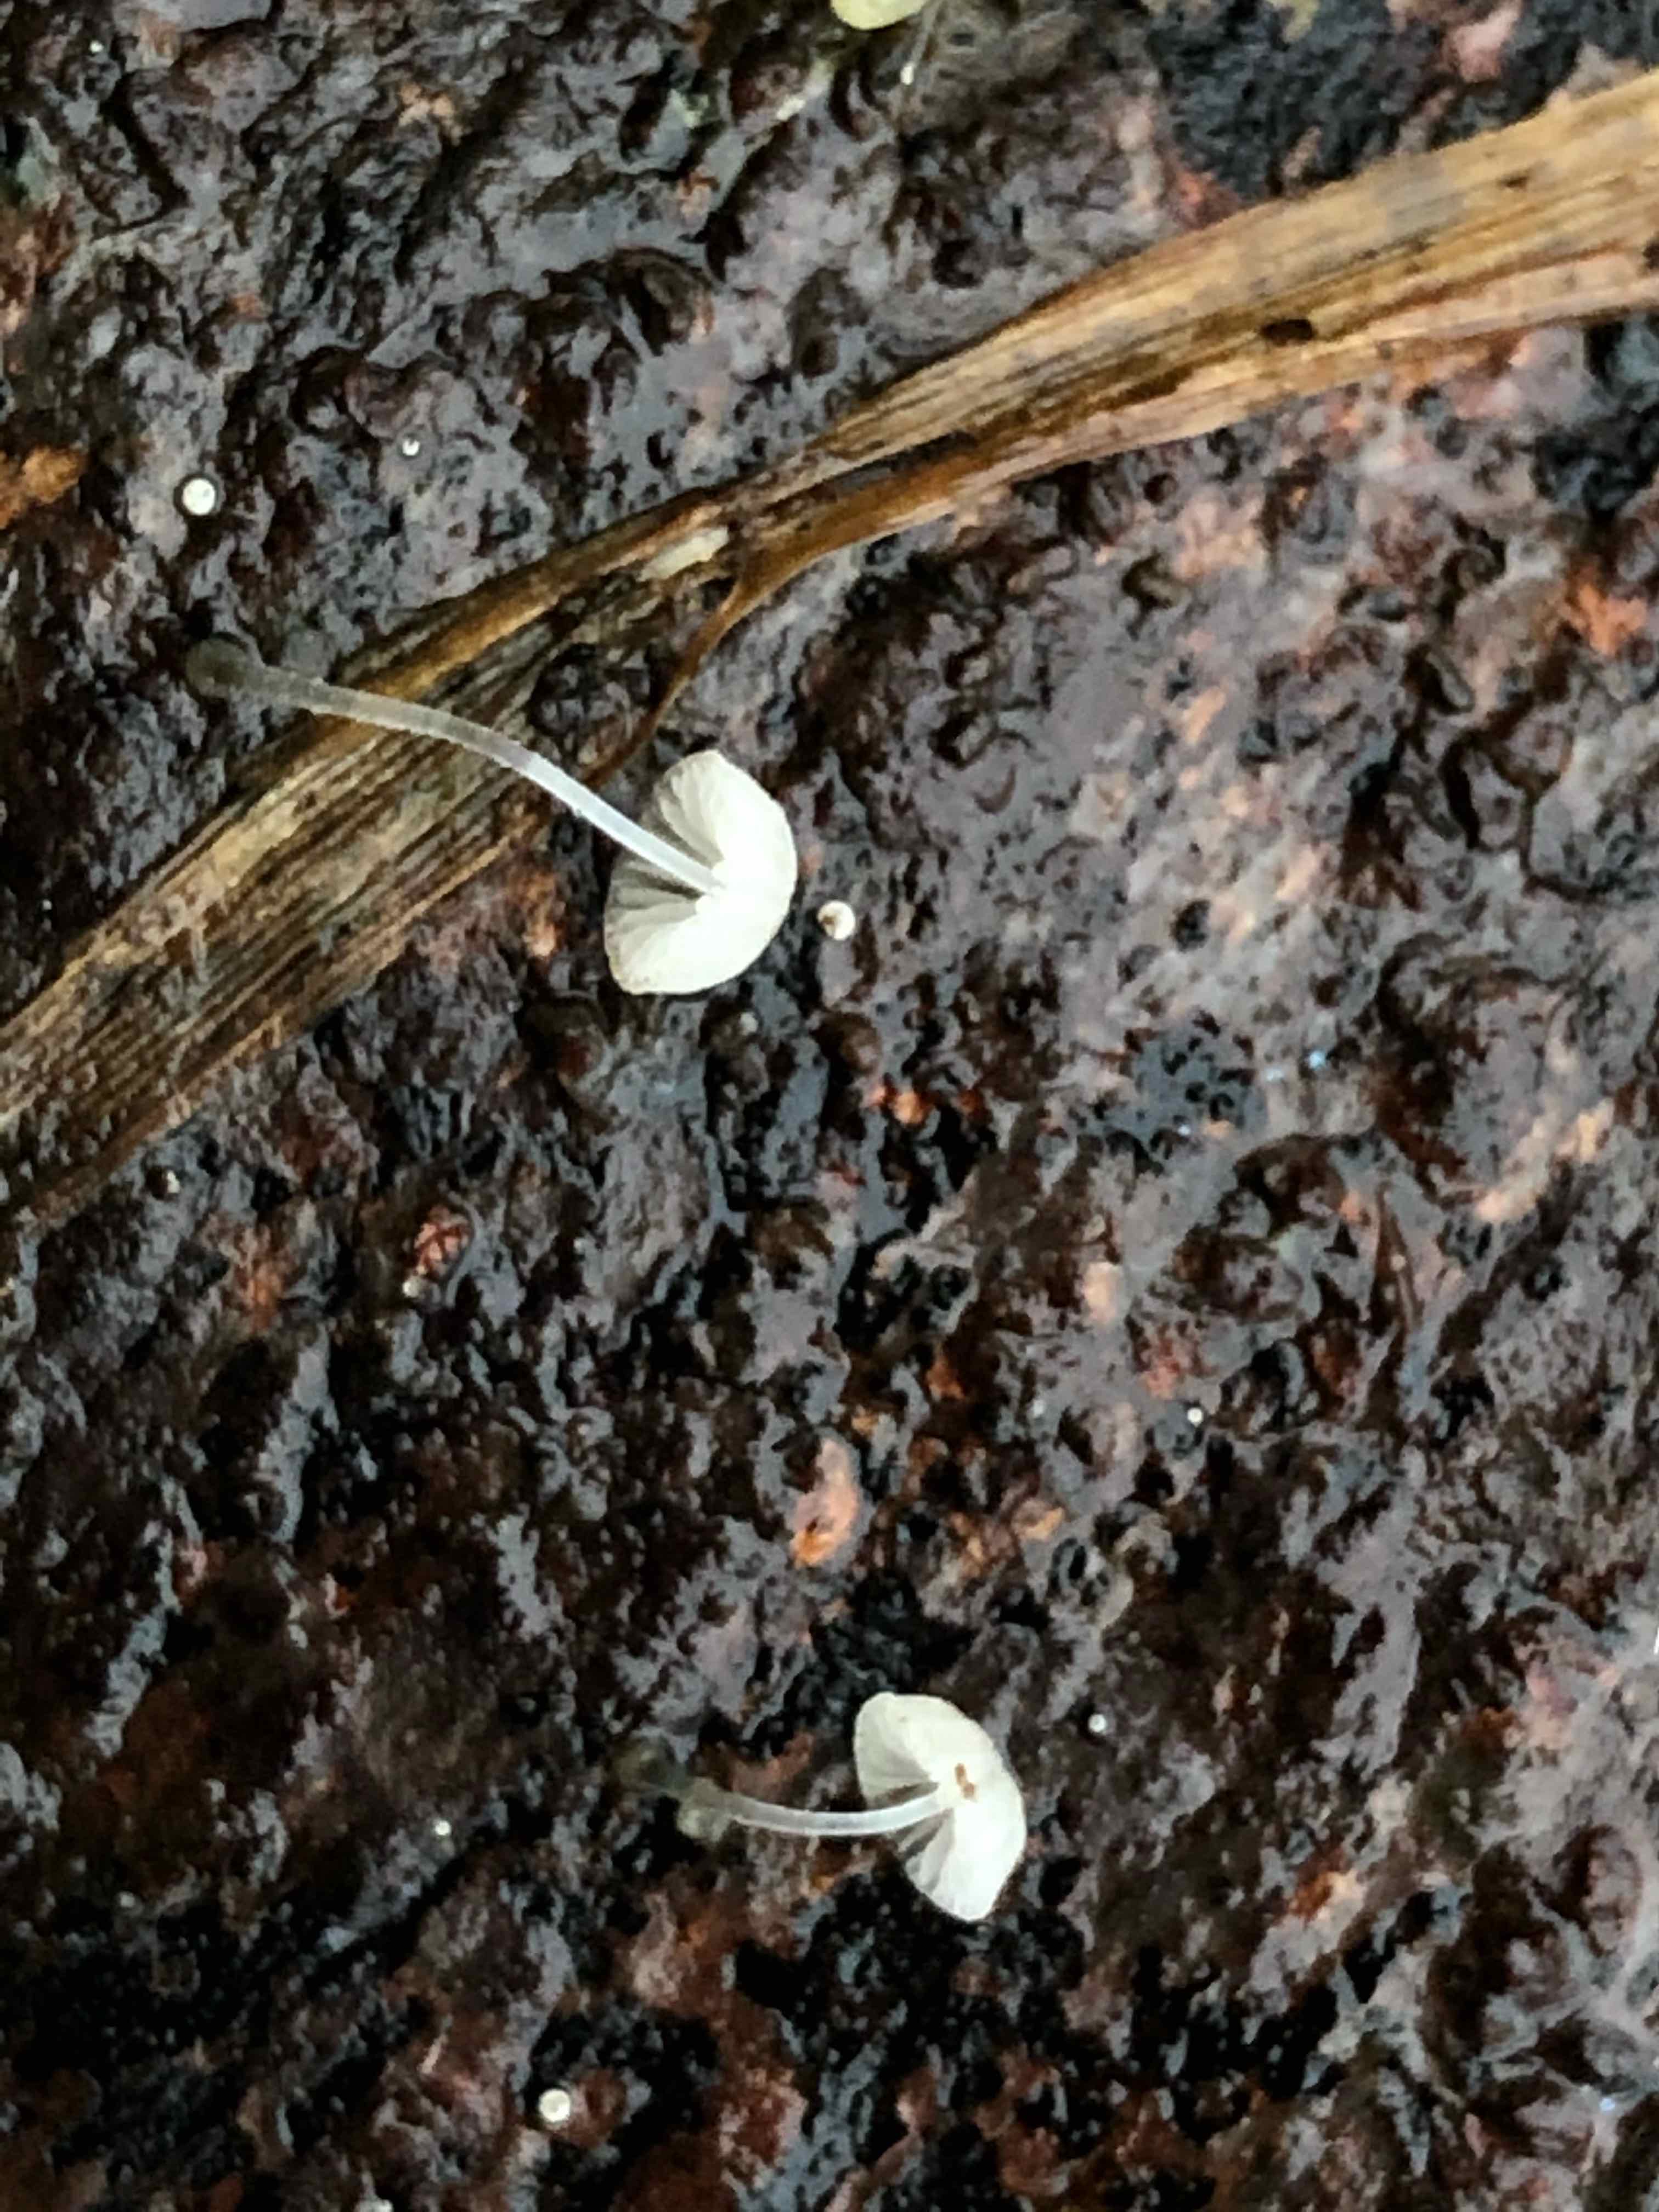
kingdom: Fungi
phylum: Basidiomycota
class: Agaricomycetes
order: Agaricales
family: Mycenaceae
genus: Mycena
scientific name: Mycena tenerrima
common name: pudret huesvamp
